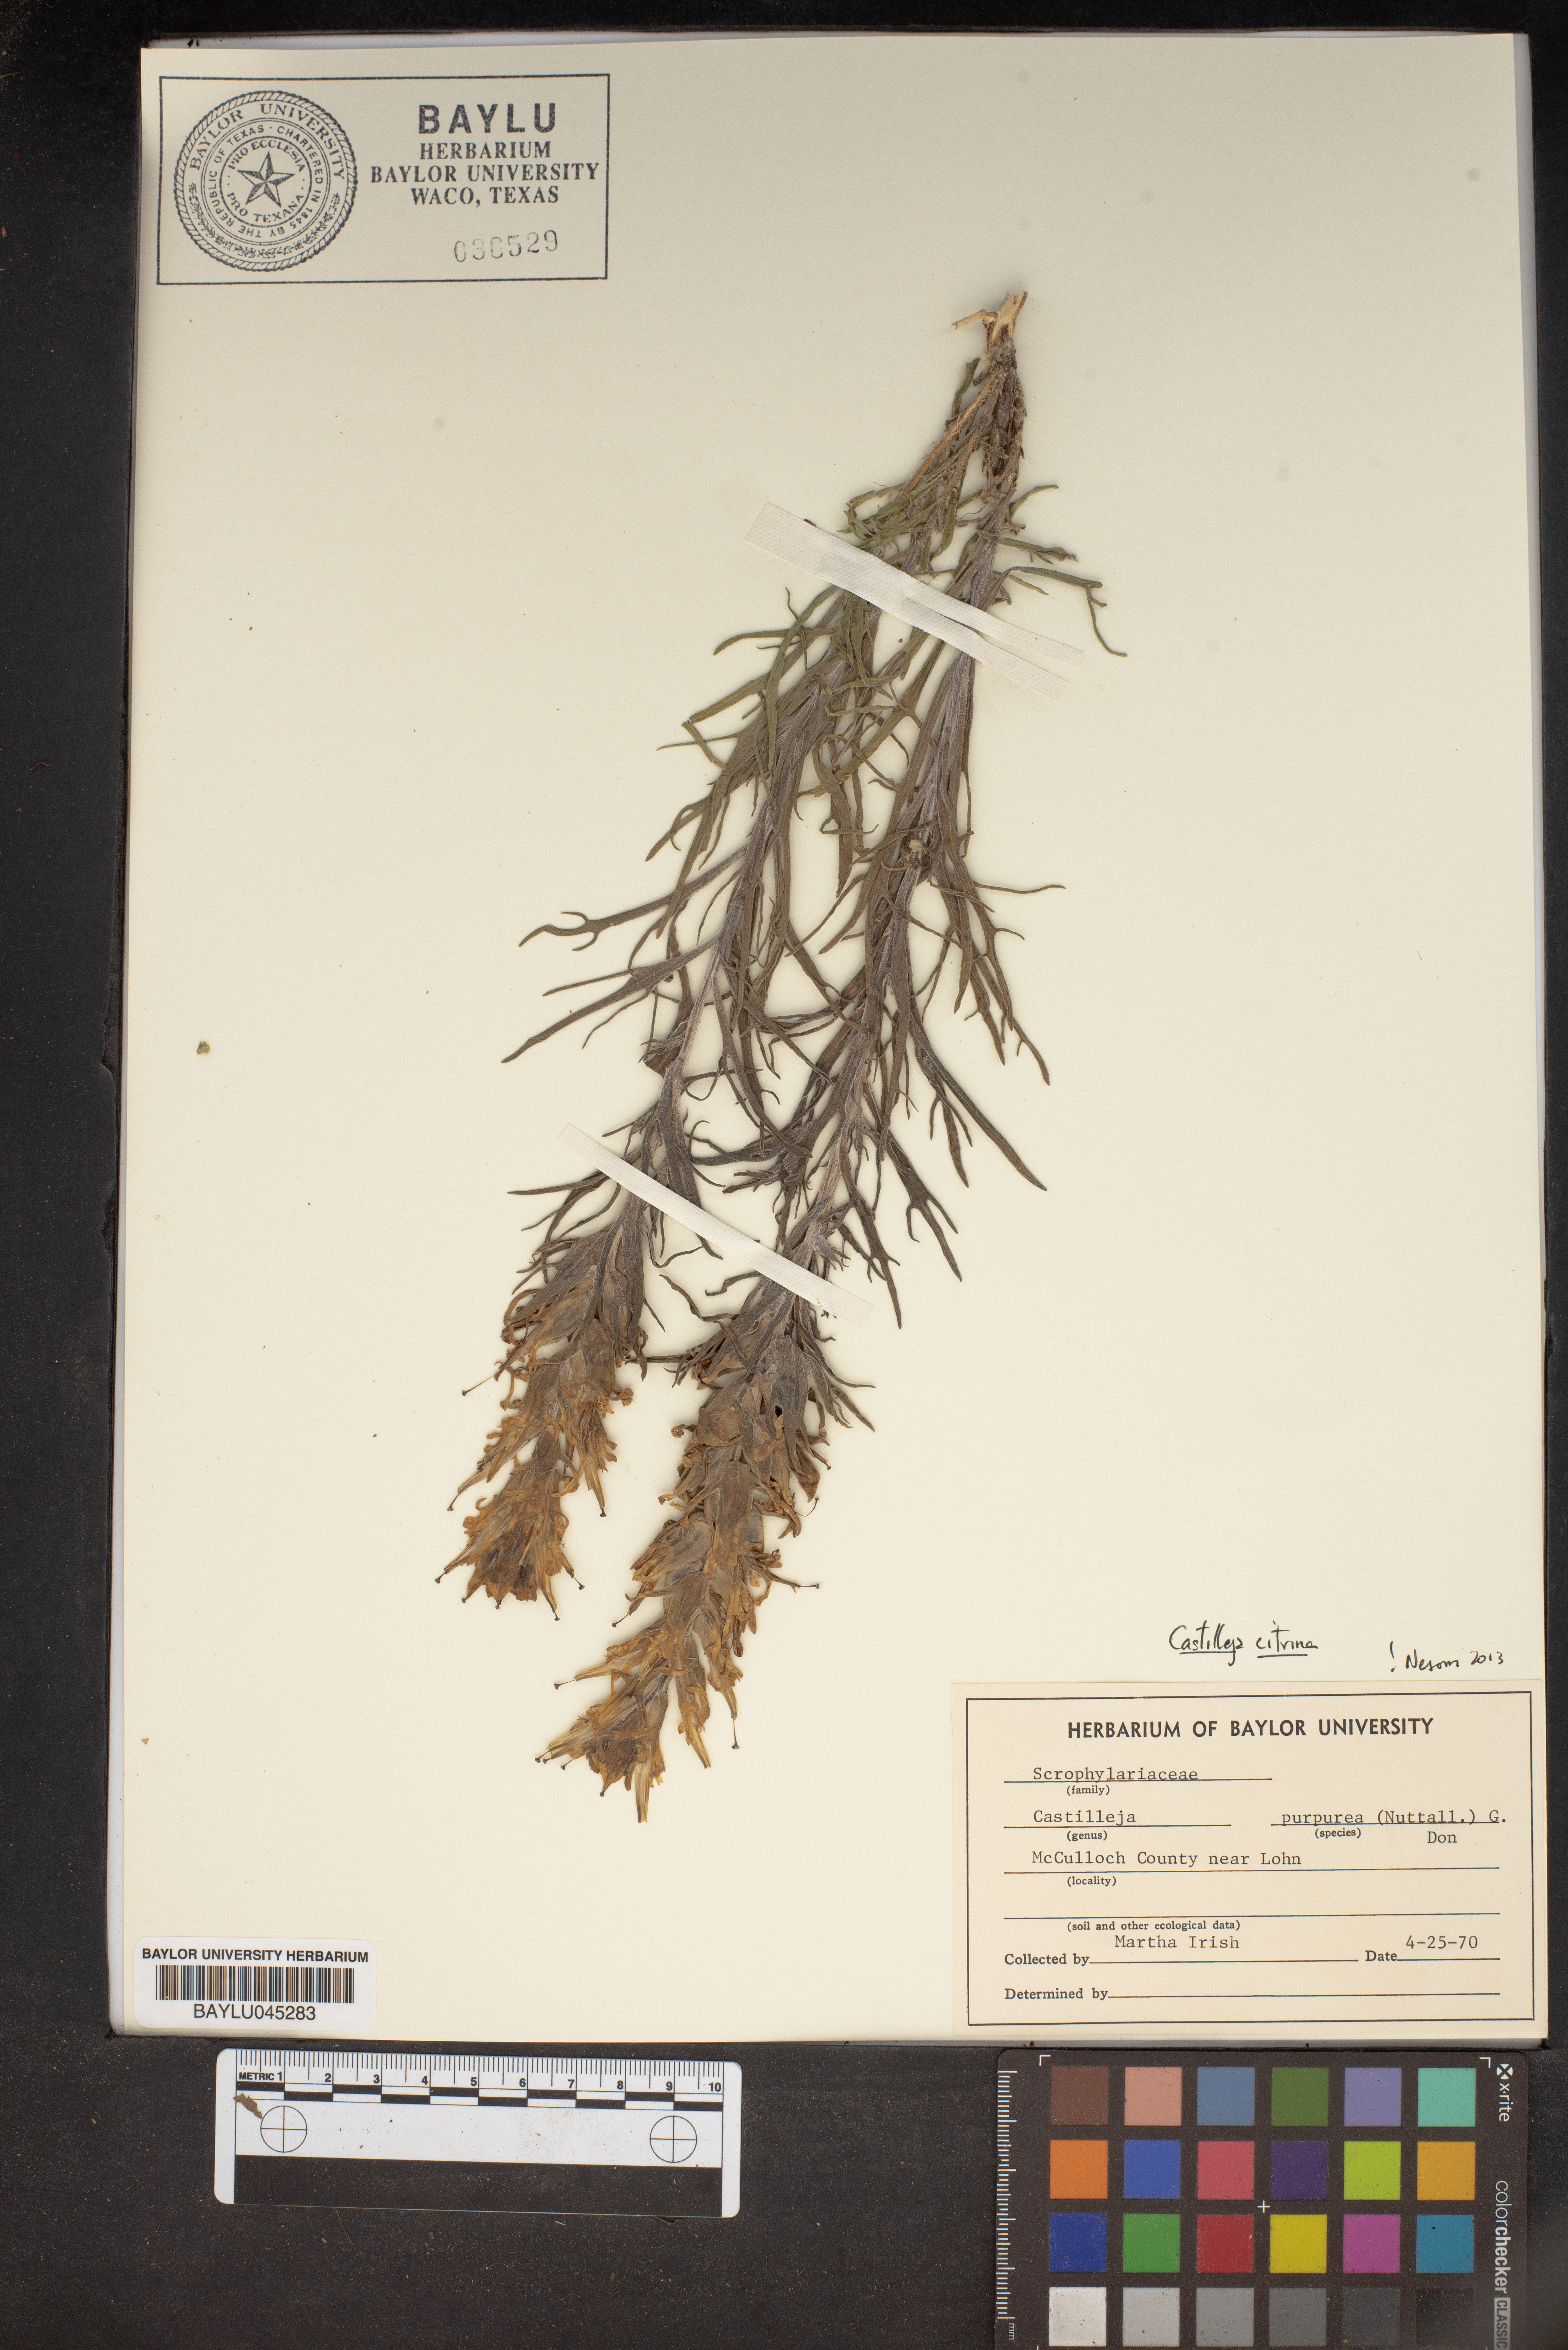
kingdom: Plantae
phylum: Tracheophyta
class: Magnoliopsida
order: Lamiales
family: Orobanchaceae
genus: Castilleja
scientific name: Castilleja purpurea
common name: Plains paintbrush
